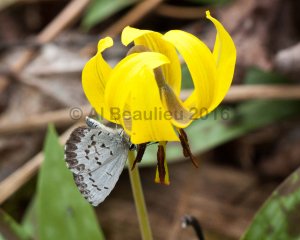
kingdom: Animalia
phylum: Arthropoda
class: Insecta
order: Lepidoptera
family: Lycaenidae
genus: Celastrina
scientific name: Celastrina lucia
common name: Northern Spring Azure
